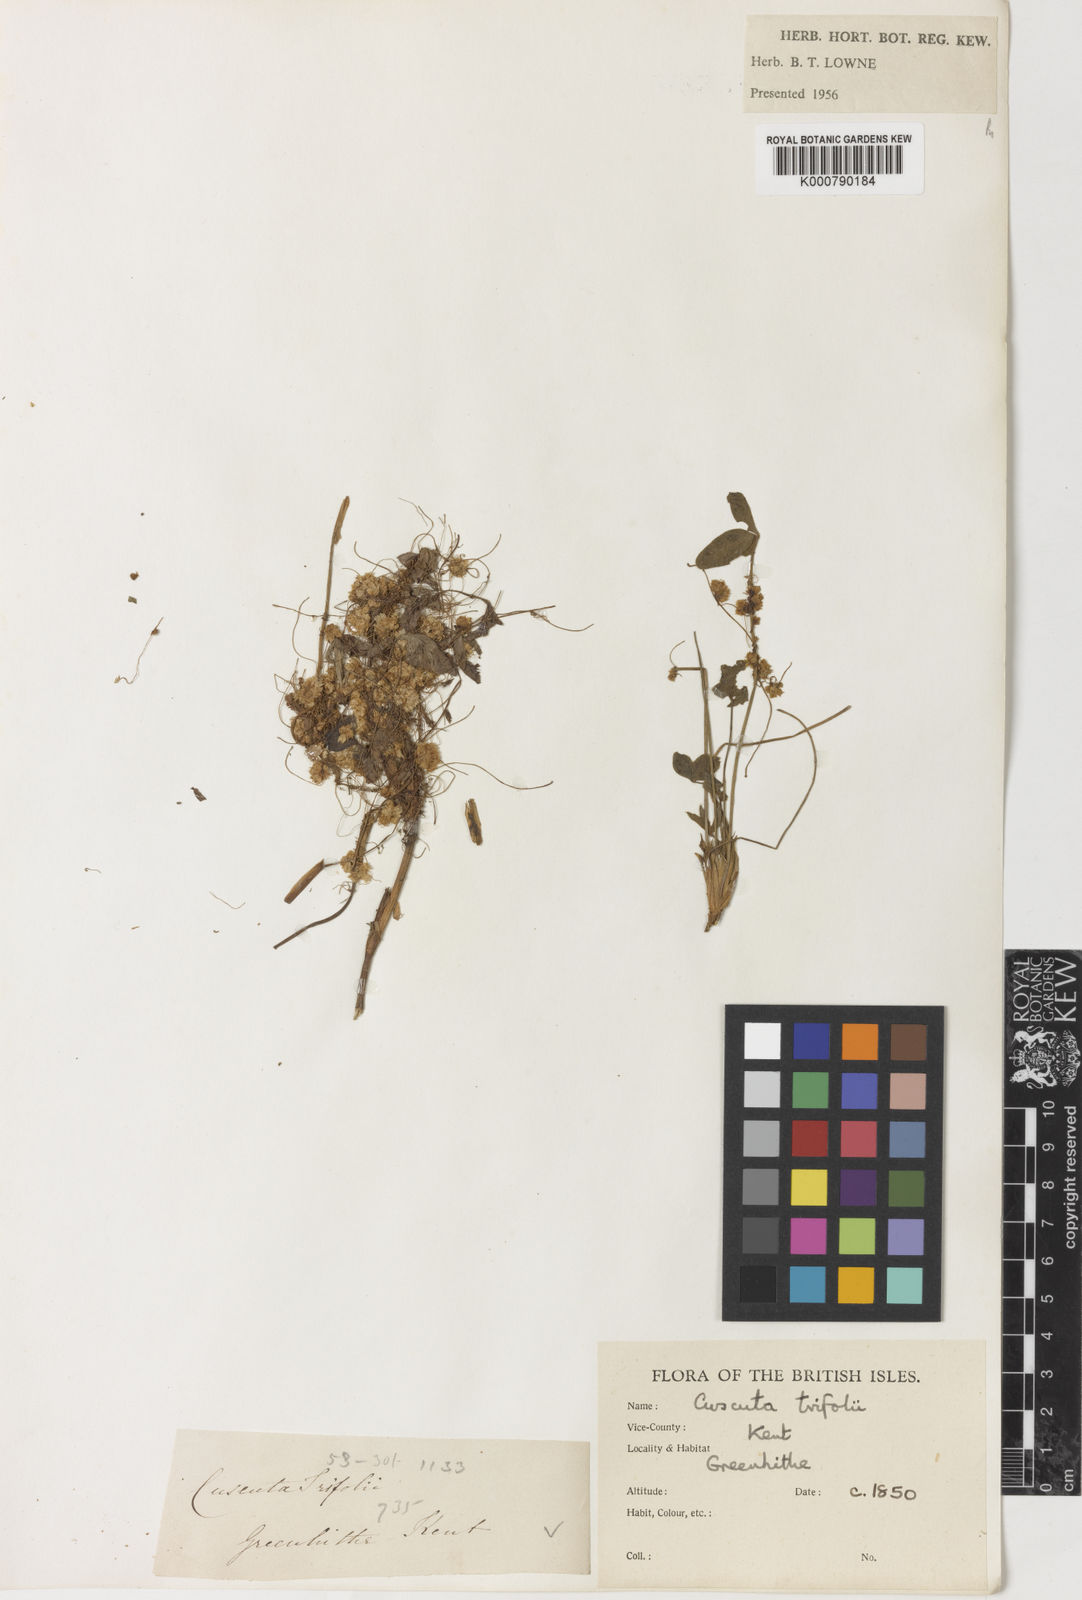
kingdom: Plantae
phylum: Tracheophyta
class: Magnoliopsida
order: Solanales
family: Convolvulaceae
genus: Cuscuta
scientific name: Cuscuta epithymum
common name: Clover dodder
